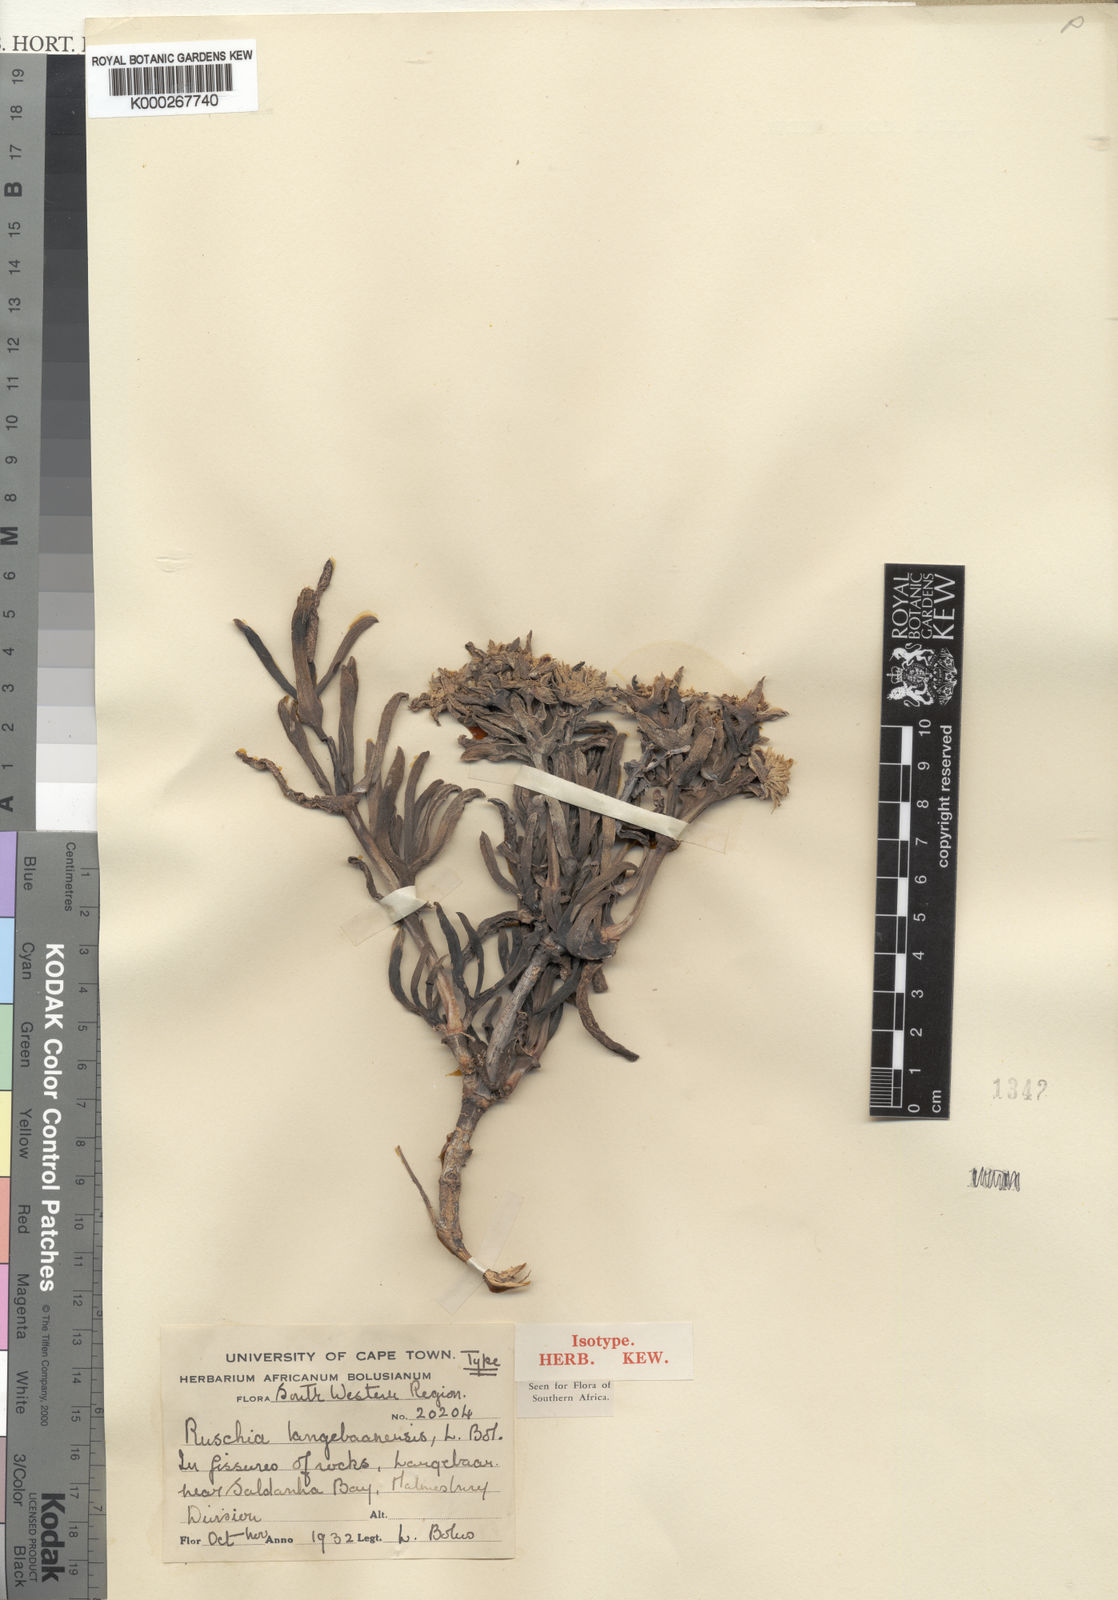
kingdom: Plantae
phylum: Tracheophyta
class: Magnoliopsida
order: Caryophyllales
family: Aizoaceae
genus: Ruschia
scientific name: Ruschia langebaanensis
